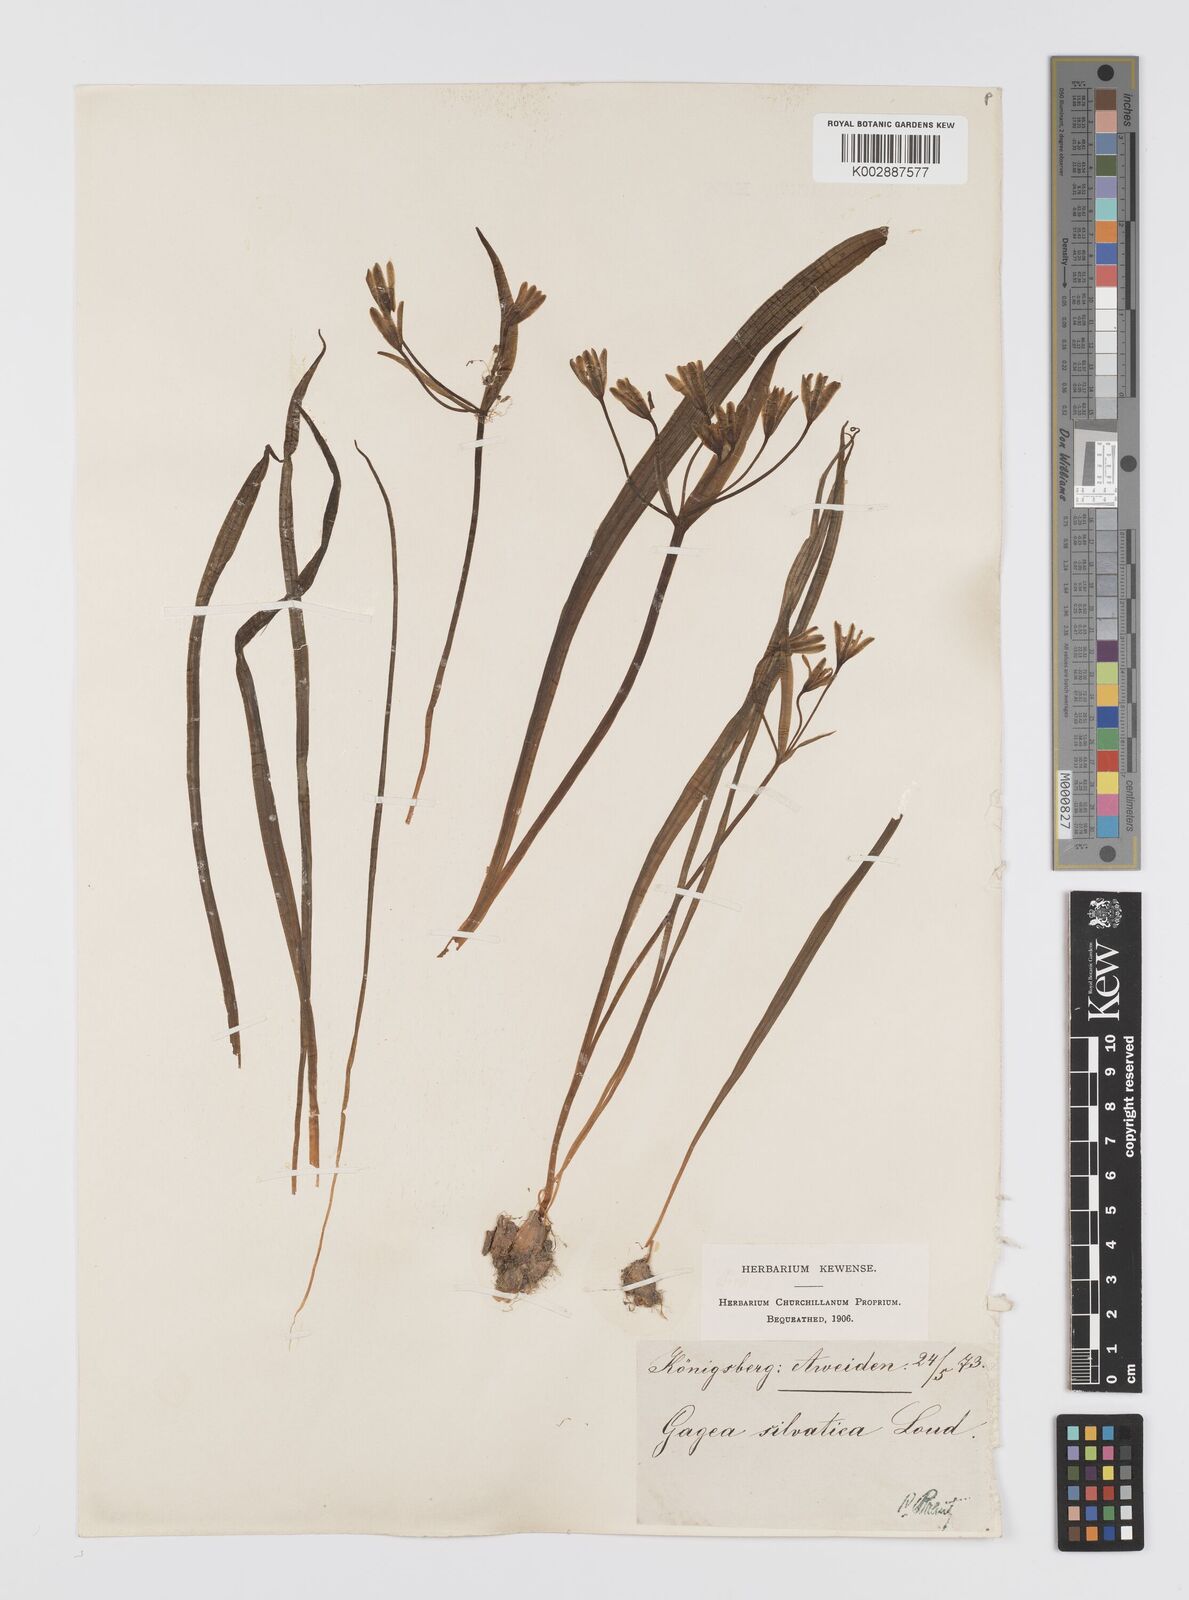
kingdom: Plantae
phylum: Tracheophyta
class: Liliopsida
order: Liliales
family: Liliaceae
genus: Gagea
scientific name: Gagea lutea
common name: Yellow star-of-bethlehem
